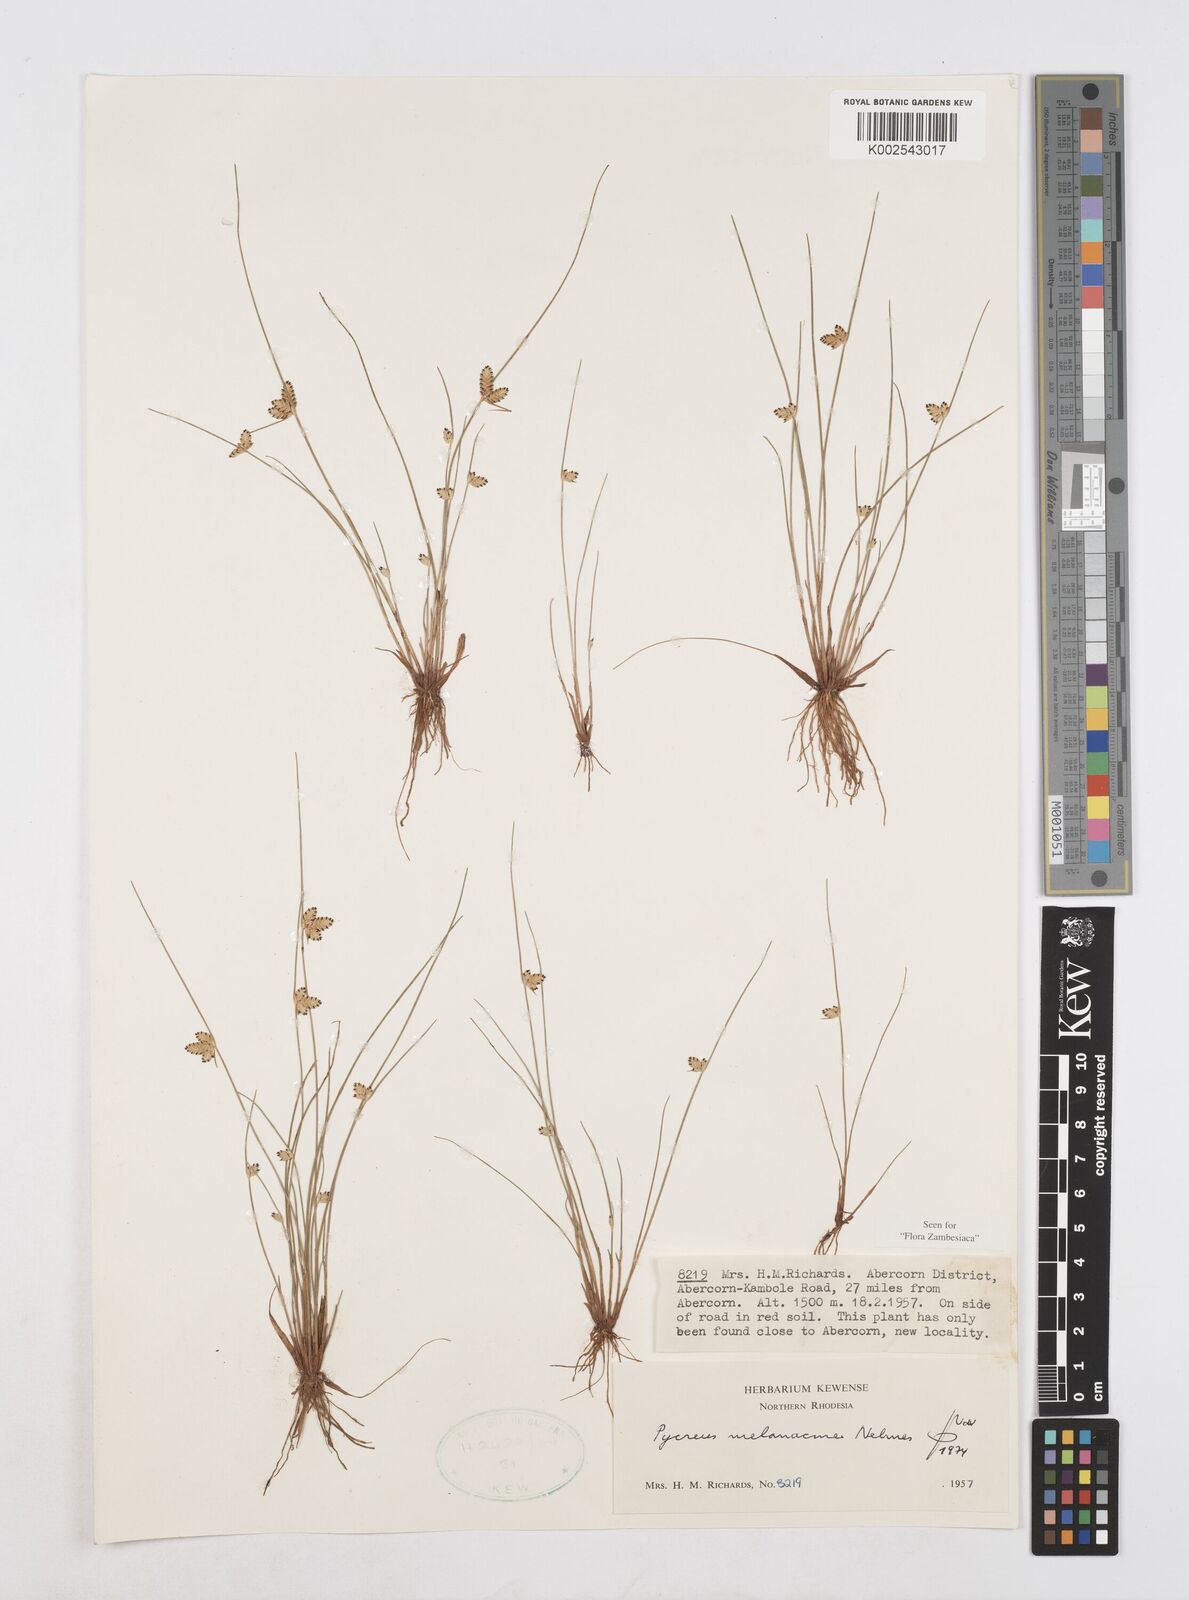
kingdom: Plantae
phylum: Tracheophyta
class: Liliopsida
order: Poales
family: Cyperaceae
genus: Cyperus
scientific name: Cyperus melanacme
